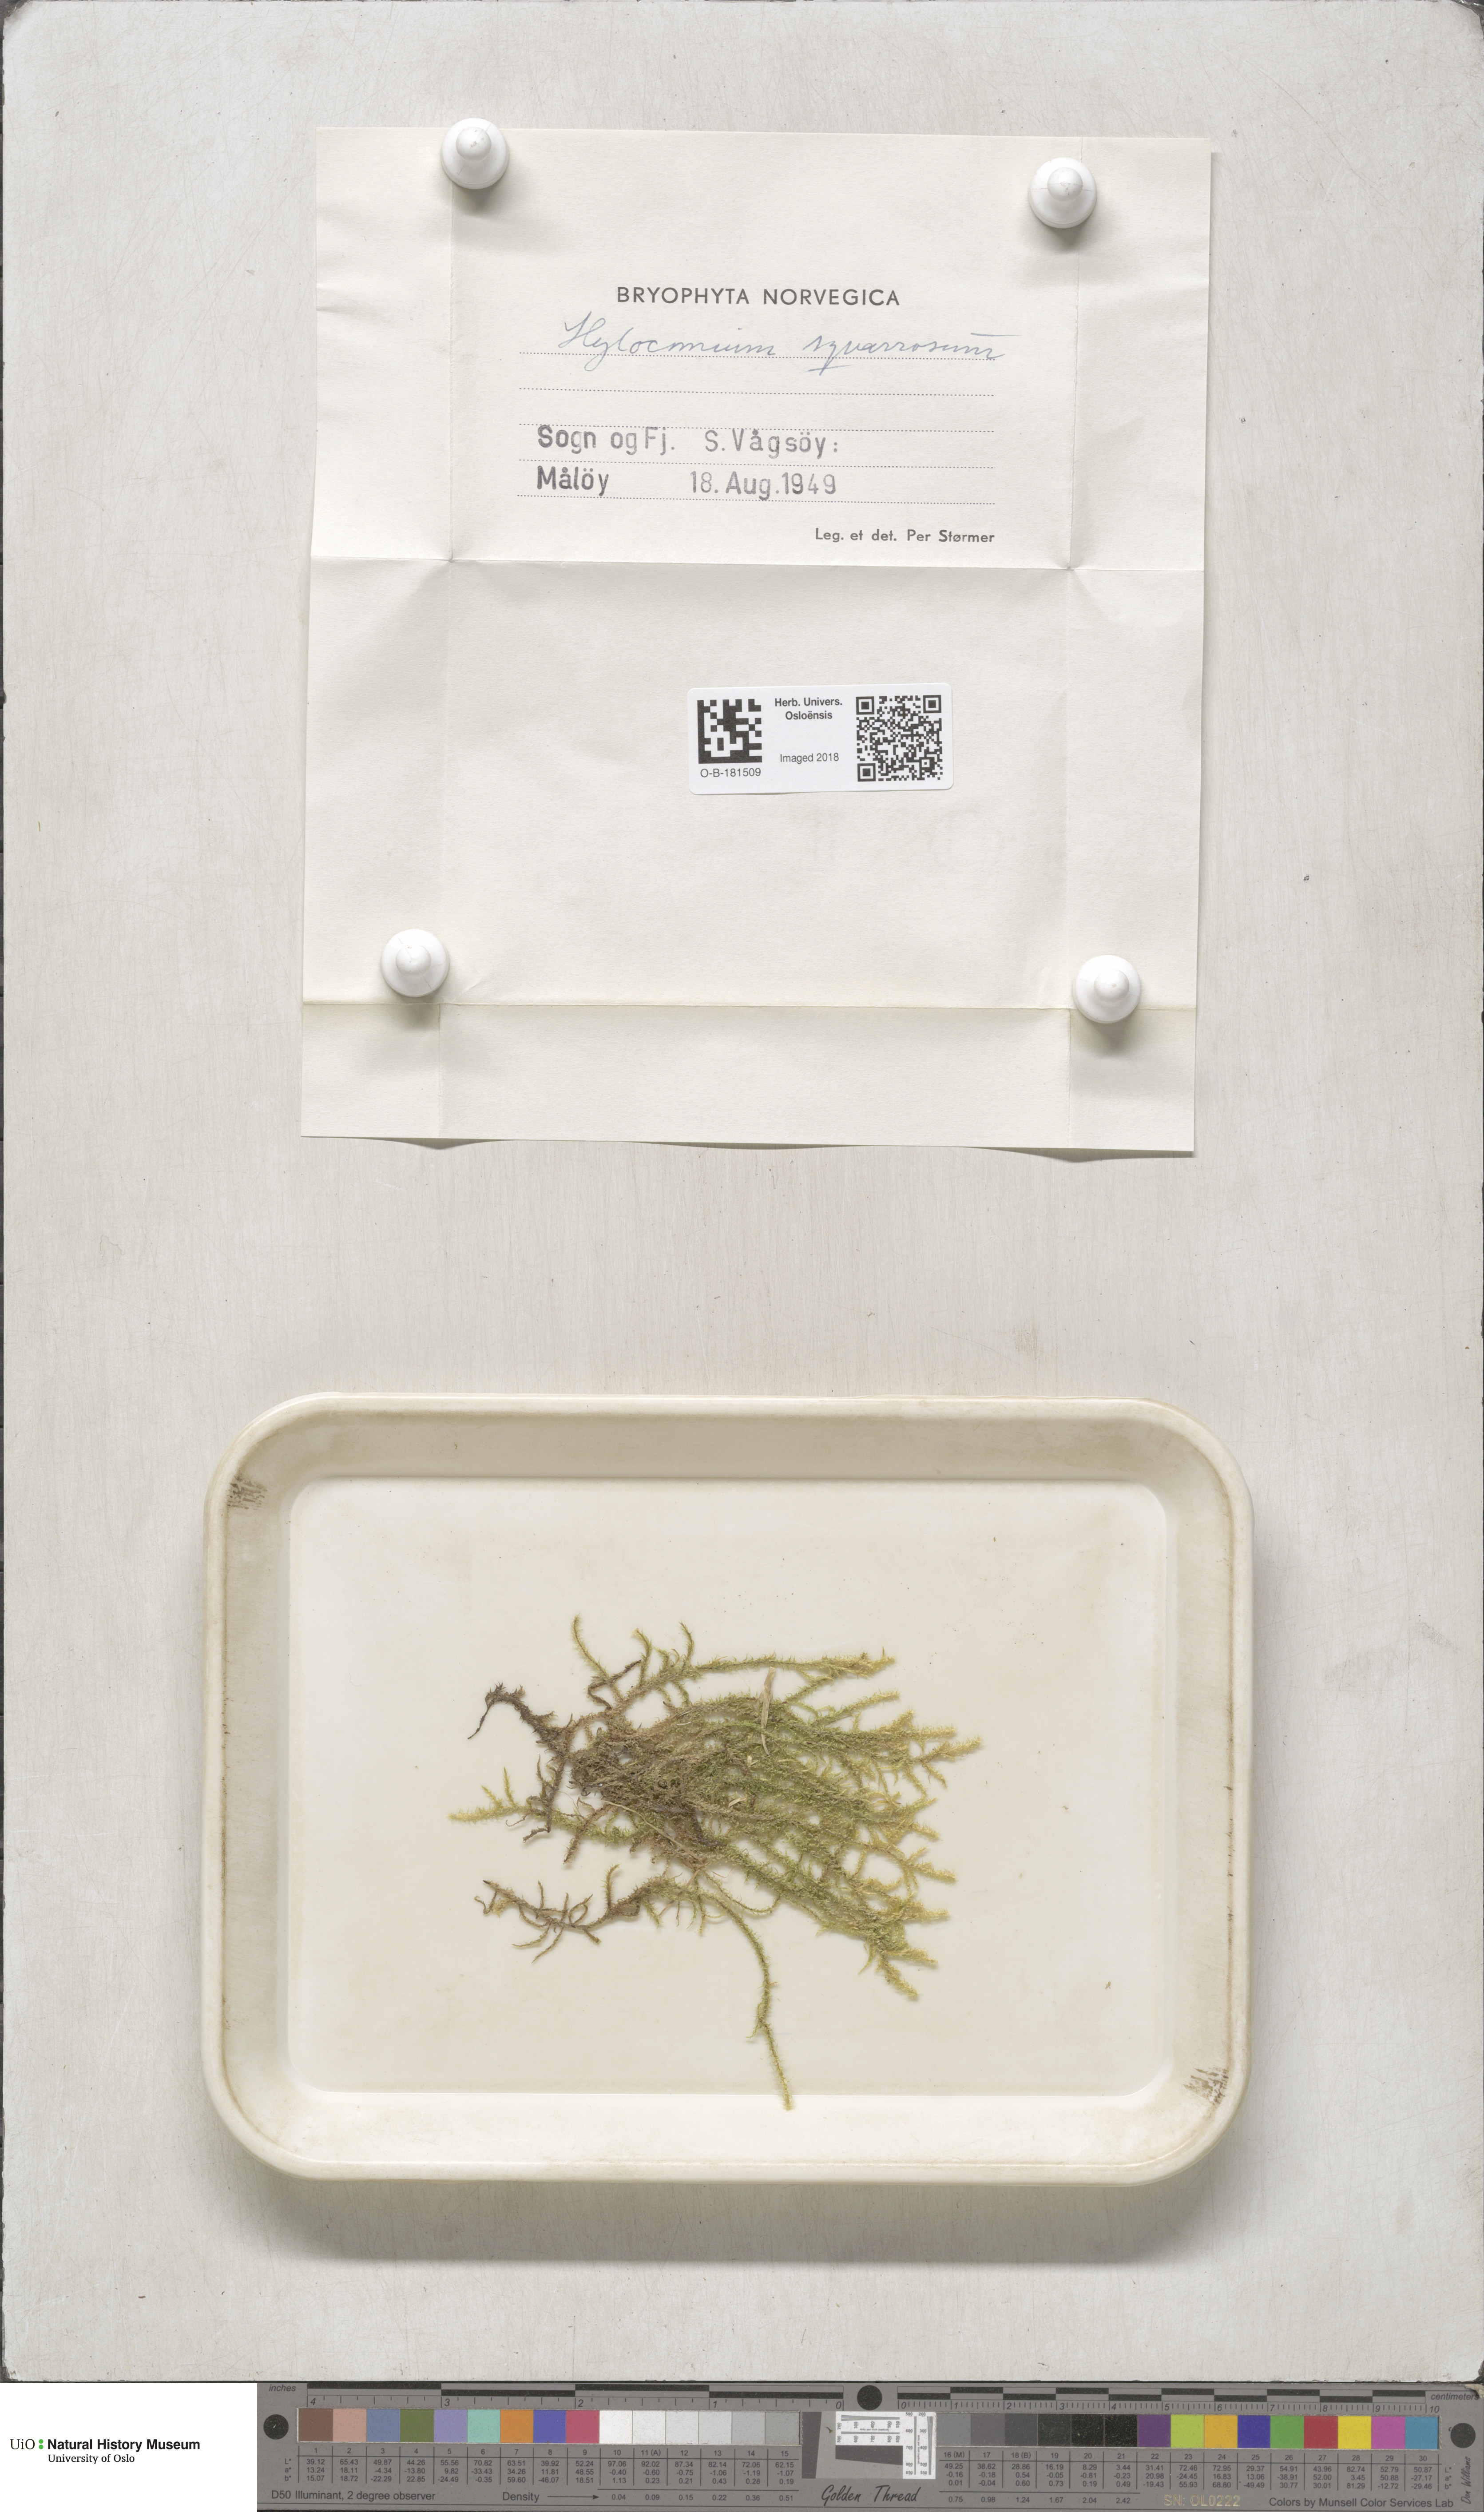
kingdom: Plantae
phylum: Bryophyta
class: Bryopsida
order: Hypnales
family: Hylocomiaceae
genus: Rhytidiadelphus
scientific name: Rhytidiadelphus squarrosus
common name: Springy turf-moss
